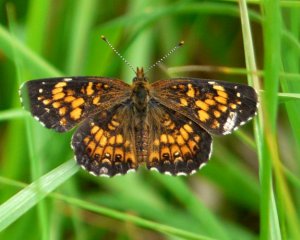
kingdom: Animalia
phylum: Arthropoda
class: Insecta
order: Lepidoptera
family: Nymphalidae
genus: Chlosyne
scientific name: Chlosyne harrisii
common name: Harris's Checkerspot
